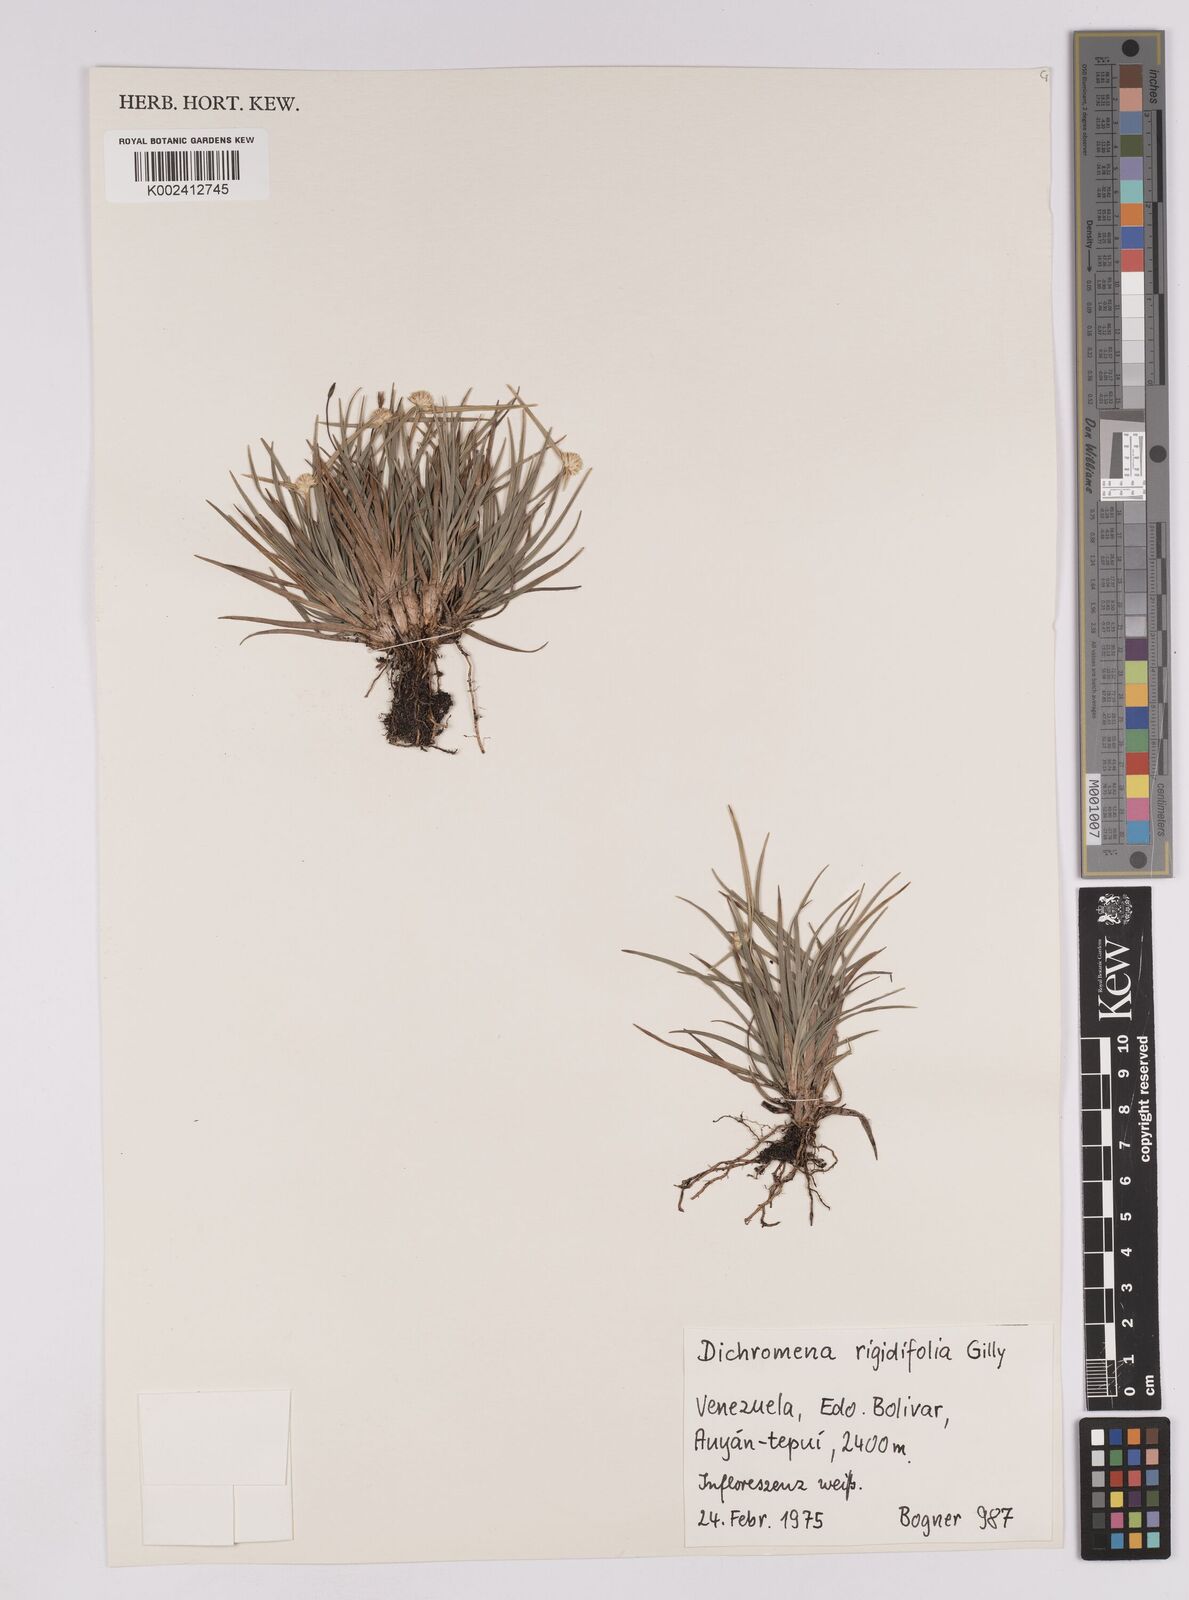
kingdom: Plantae
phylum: Tracheophyta
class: Liliopsida
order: Poales
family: Cyperaceae
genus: Rhynchospora
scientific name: Rhynchospora rigidifolia
